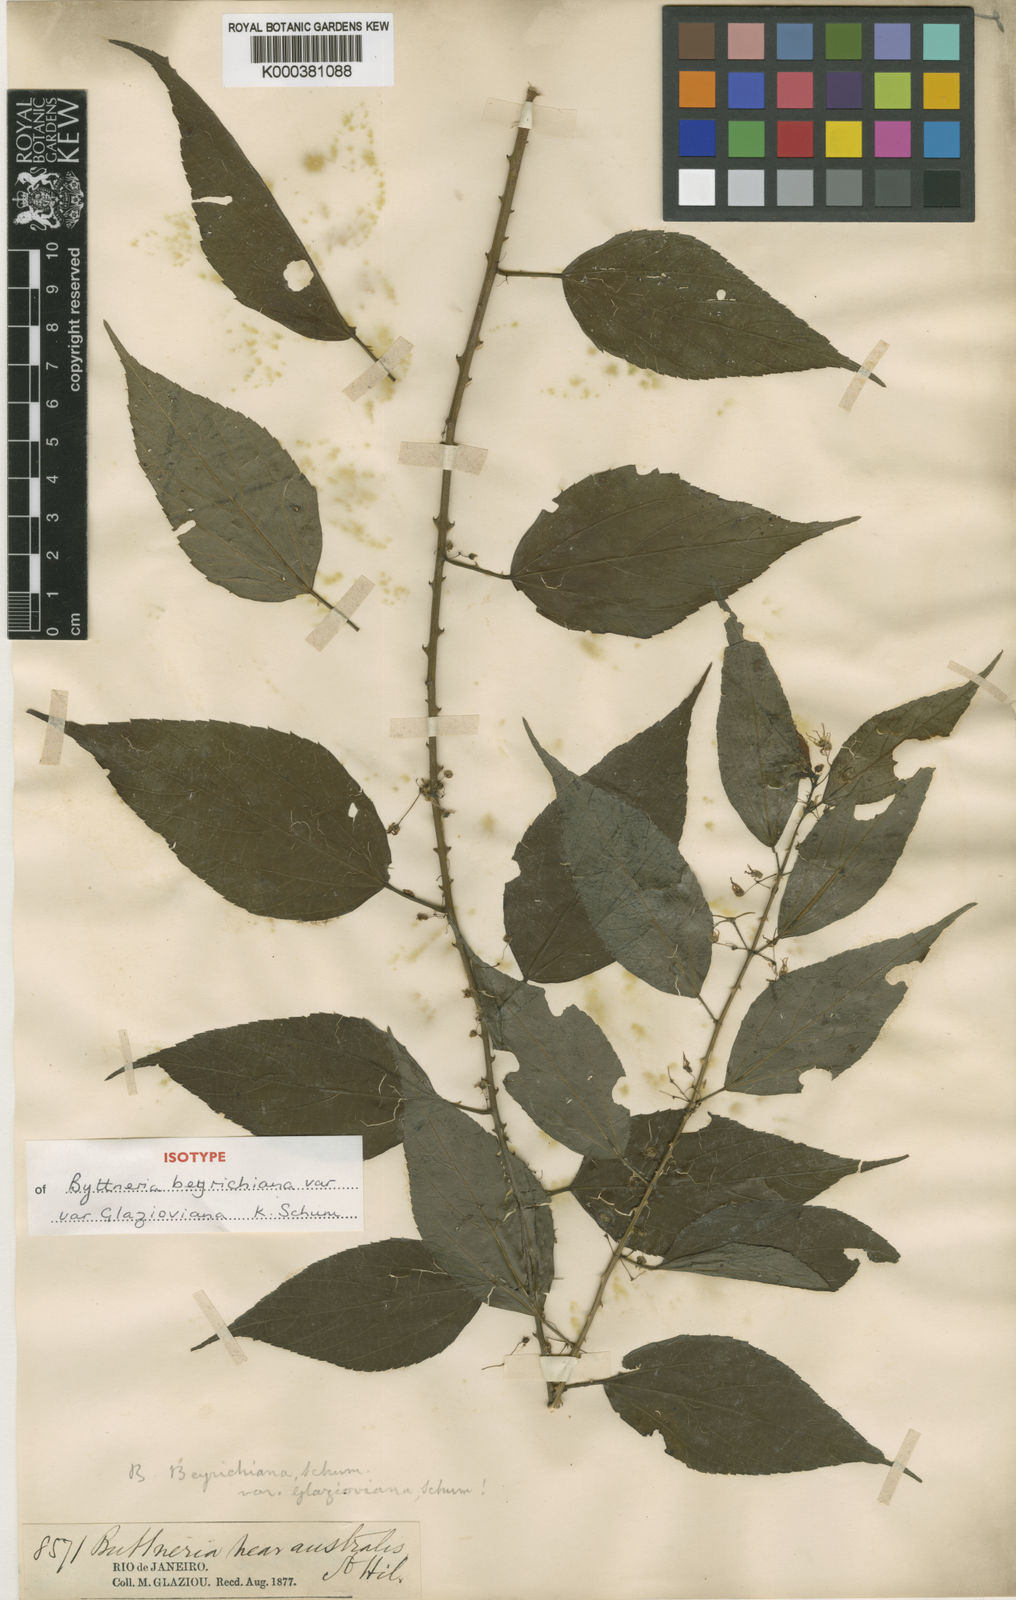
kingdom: Plantae
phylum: Tracheophyta
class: Magnoliopsida
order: Malvales
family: Malvaceae
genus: Byttneria
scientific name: Byttneria beyrichiana
